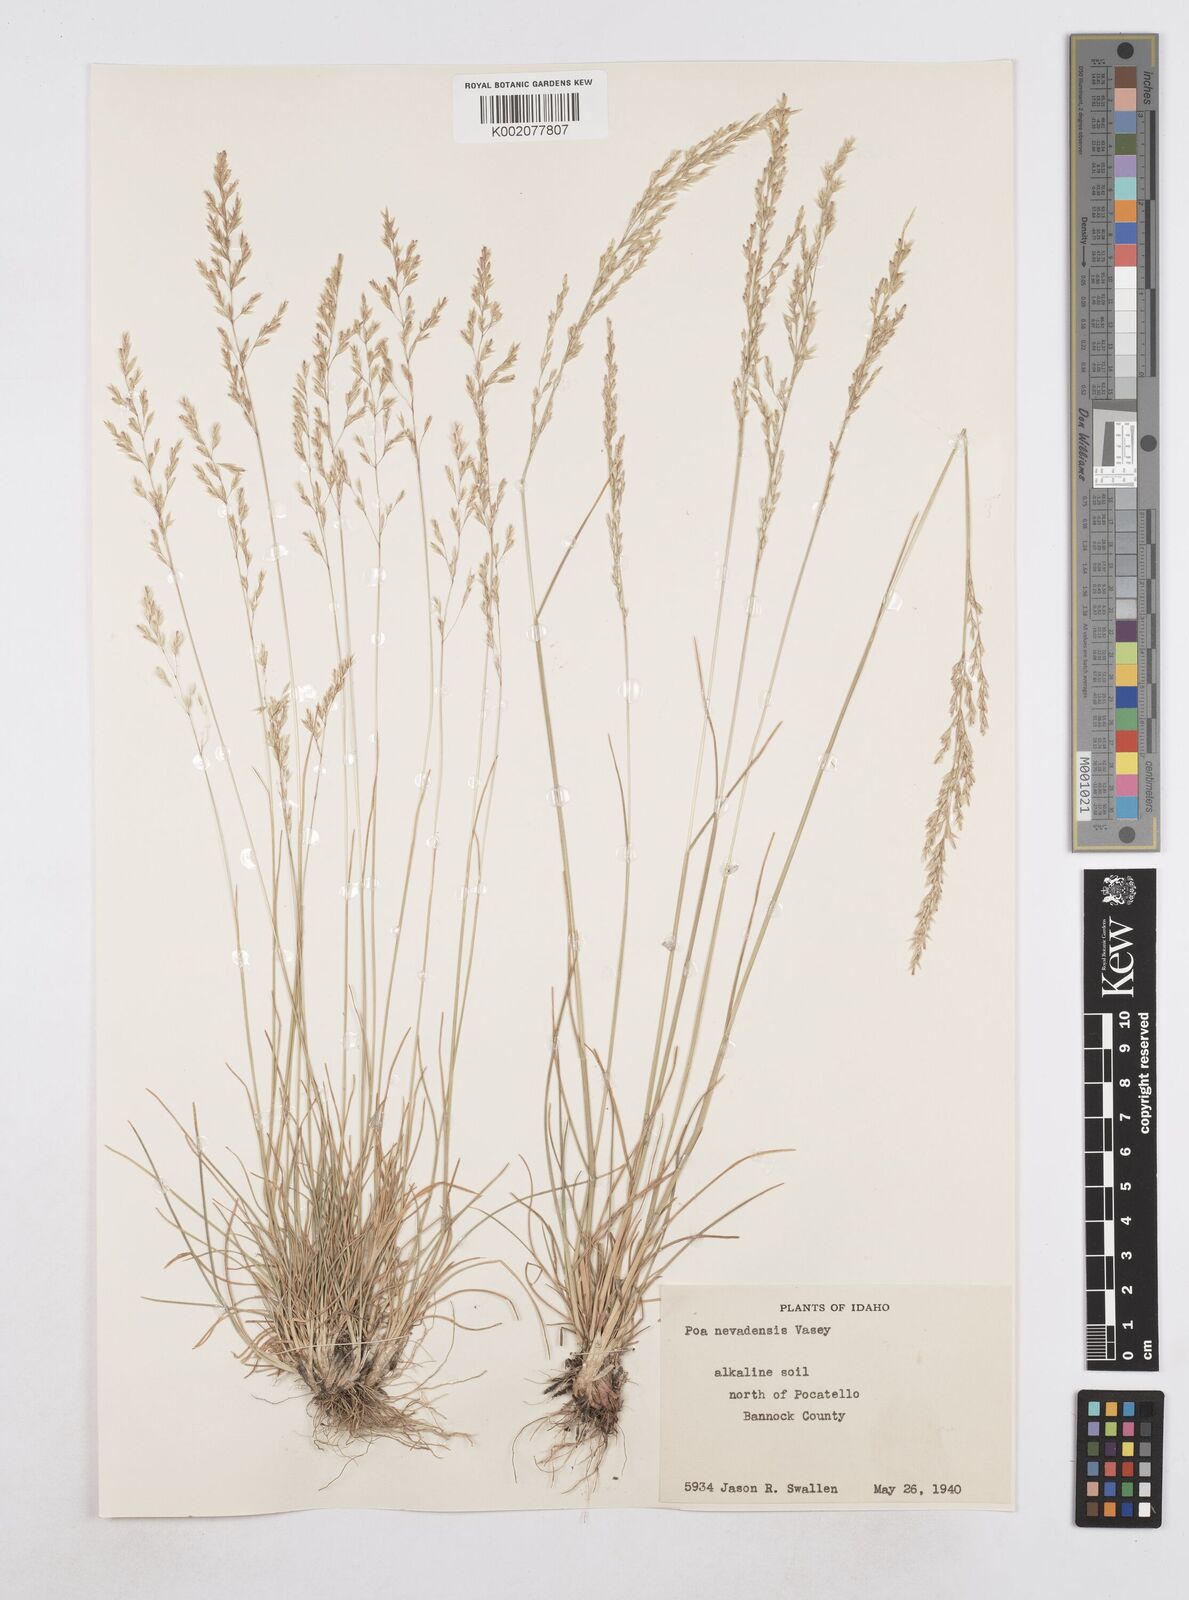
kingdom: Plantae
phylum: Tracheophyta
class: Liliopsida
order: Poales
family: Poaceae
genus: Poa
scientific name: Poa secunda
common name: Sandberg bluegrass
